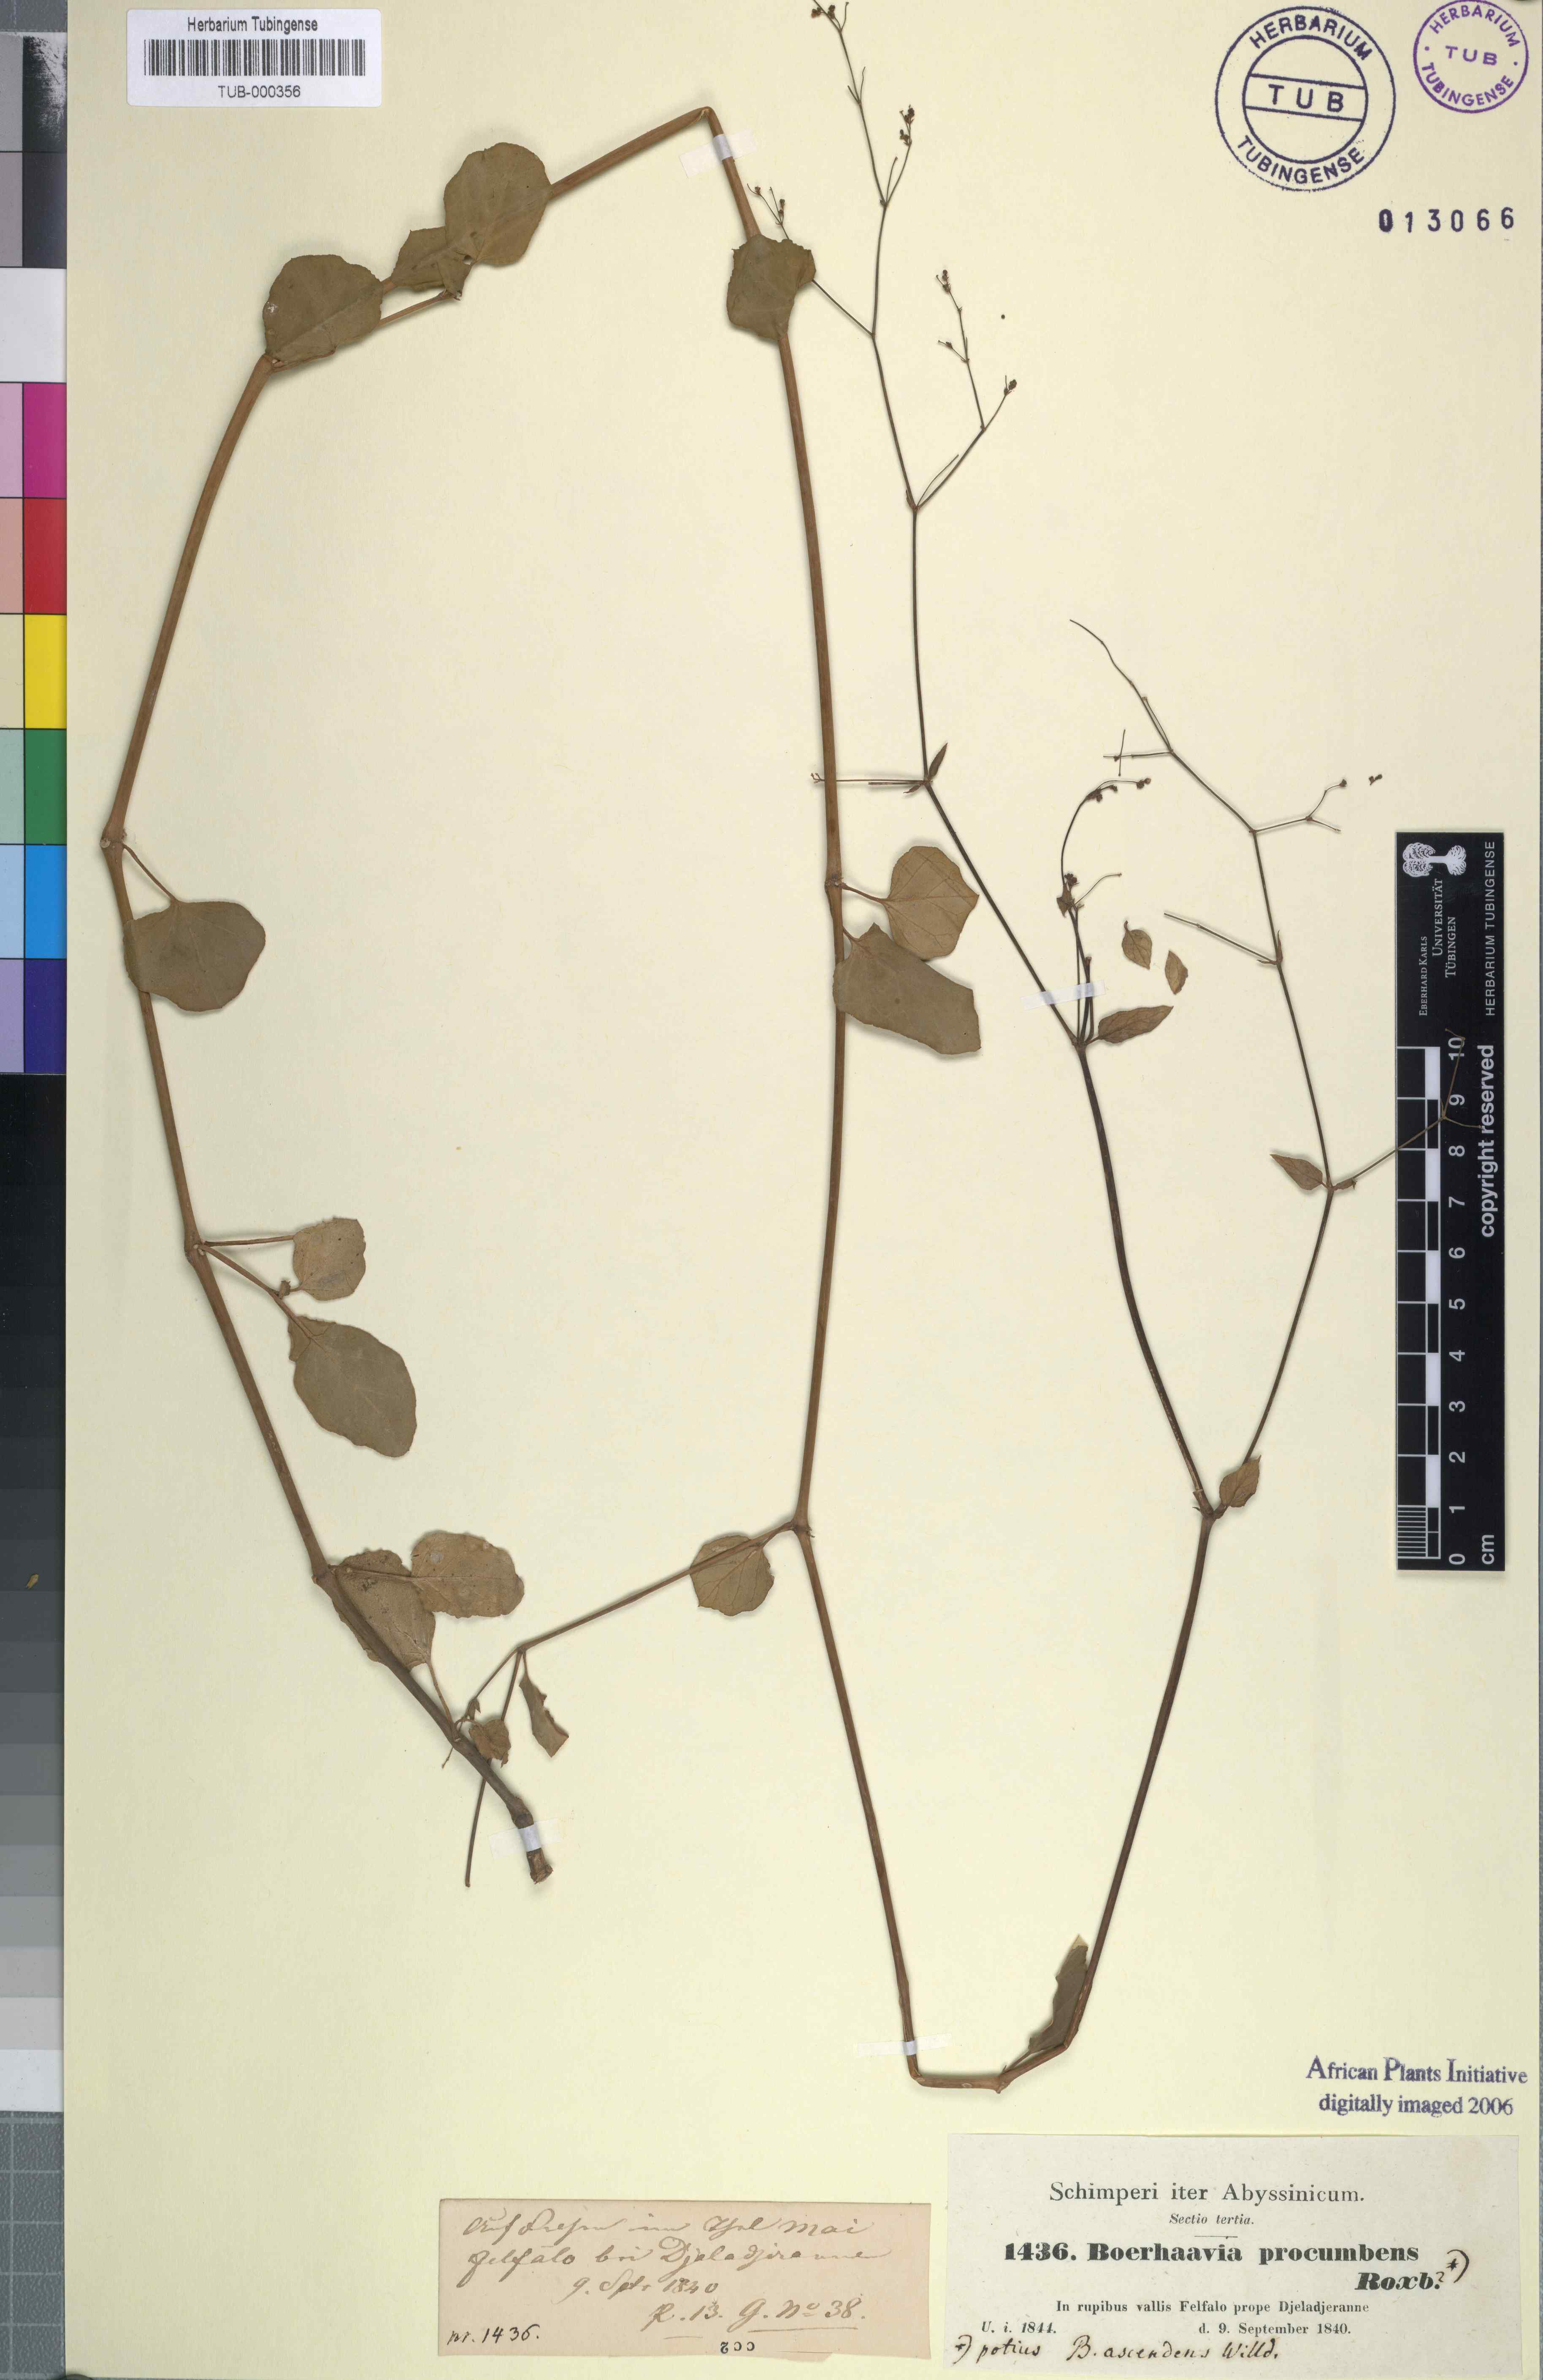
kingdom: Plantae
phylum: Tracheophyta
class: Magnoliopsida
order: Caryophyllales
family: Nyctaginaceae
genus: Boerhavia
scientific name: Boerhavia repens
